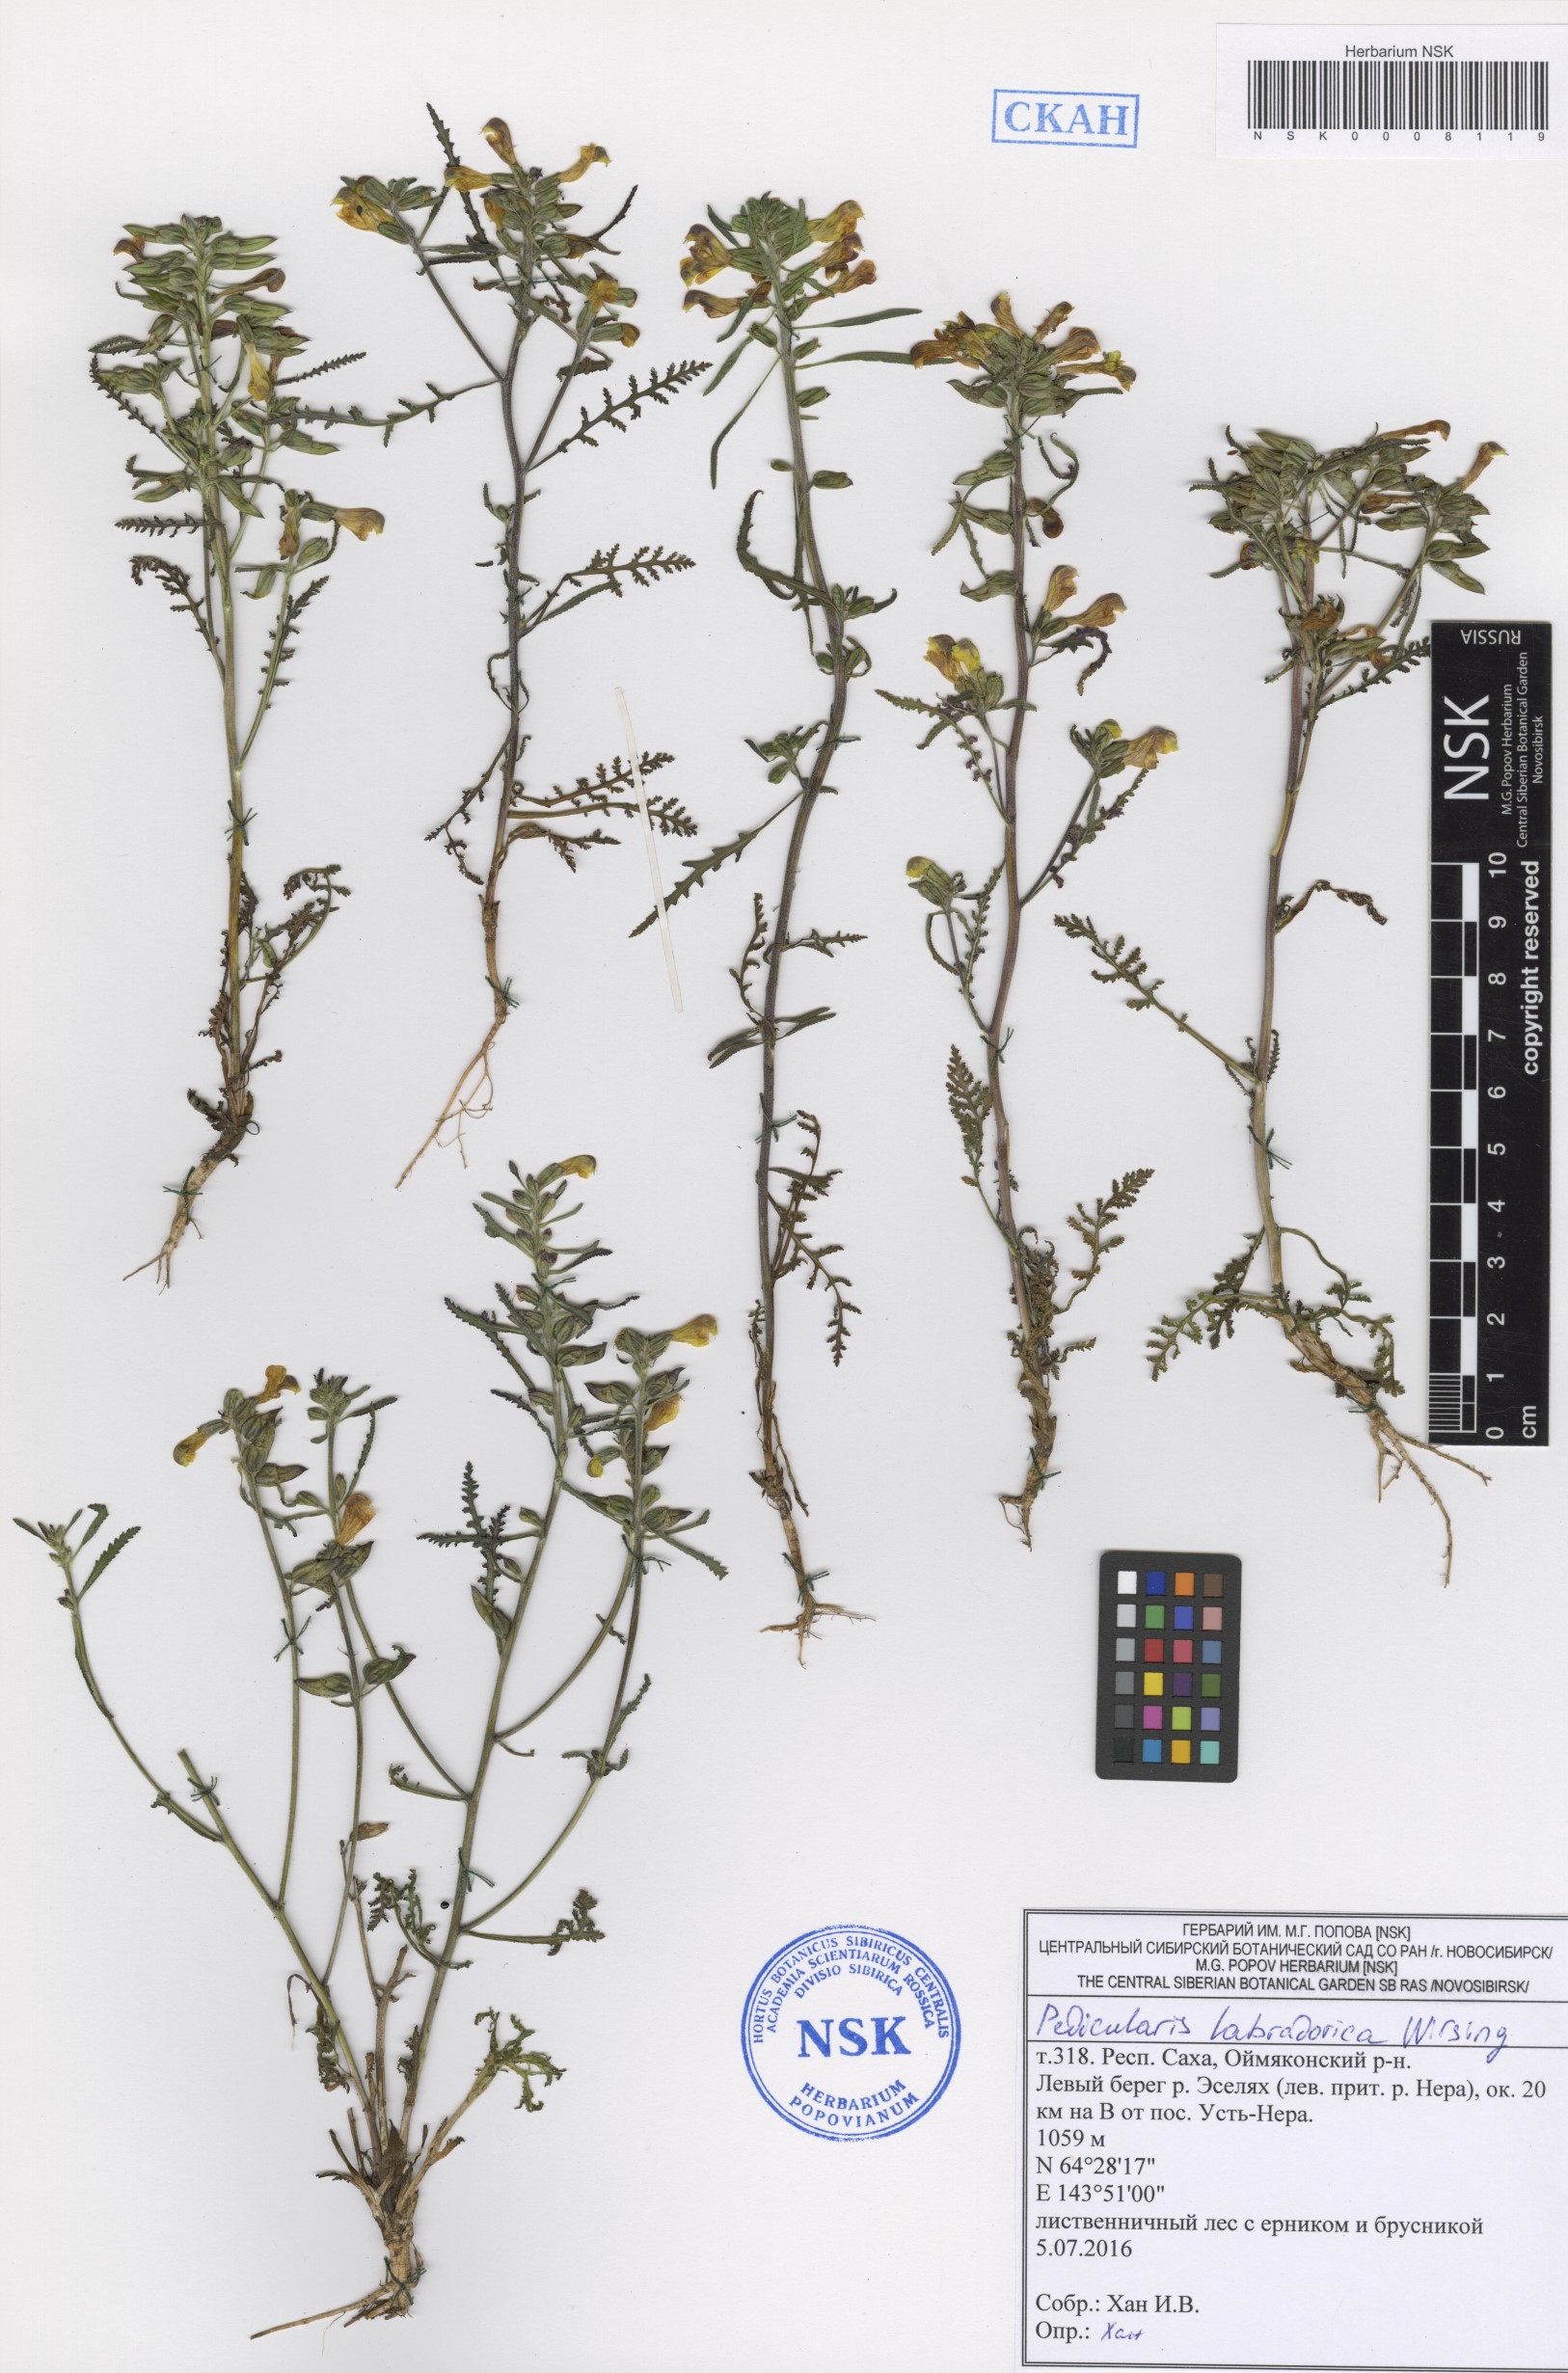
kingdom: Plantae
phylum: Tracheophyta
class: Magnoliopsida
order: Lamiales
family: Orobanchaceae
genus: Pedicularis
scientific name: Pedicularis labradorica
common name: Labrador lousewort
